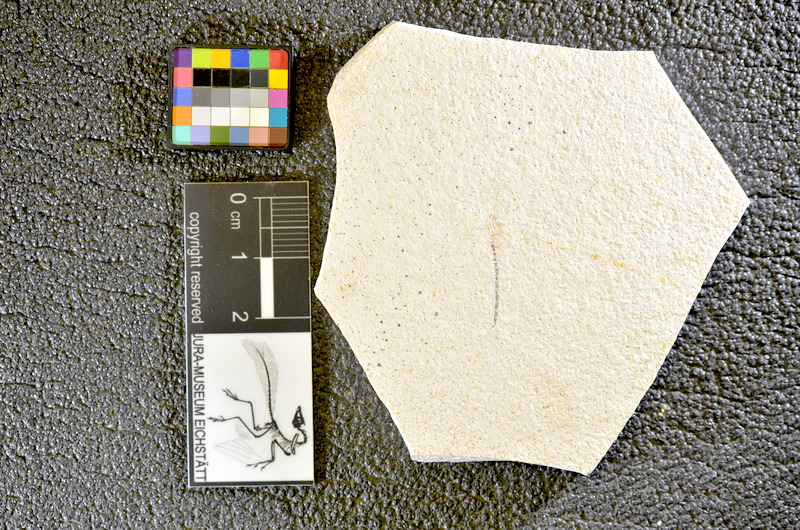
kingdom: Animalia
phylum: Chordata
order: Salmoniformes
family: Orthogonikleithridae
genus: Orthogonikleithrus
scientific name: Orthogonikleithrus hoelli
